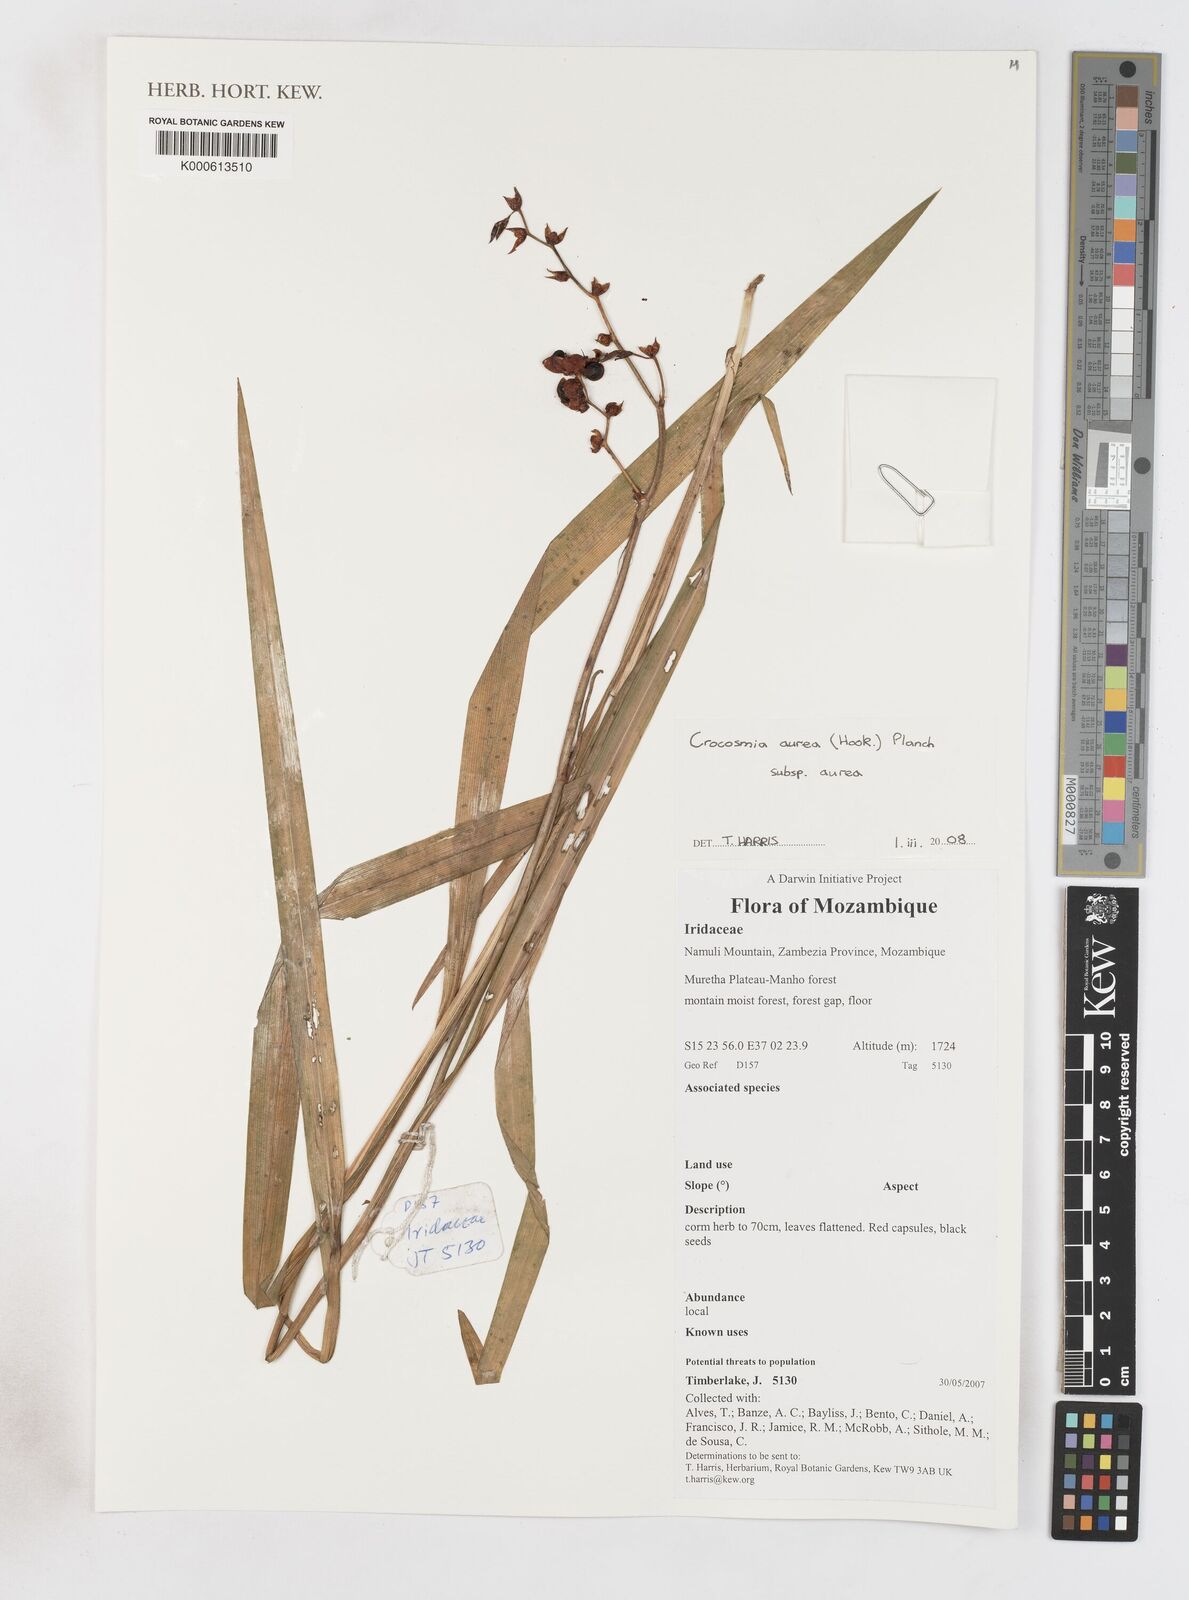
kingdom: Plantae
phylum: Tracheophyta
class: Liliopsida
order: Asparagales
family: Iridaceae
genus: Crocosmia
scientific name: Crocosmia aurea
